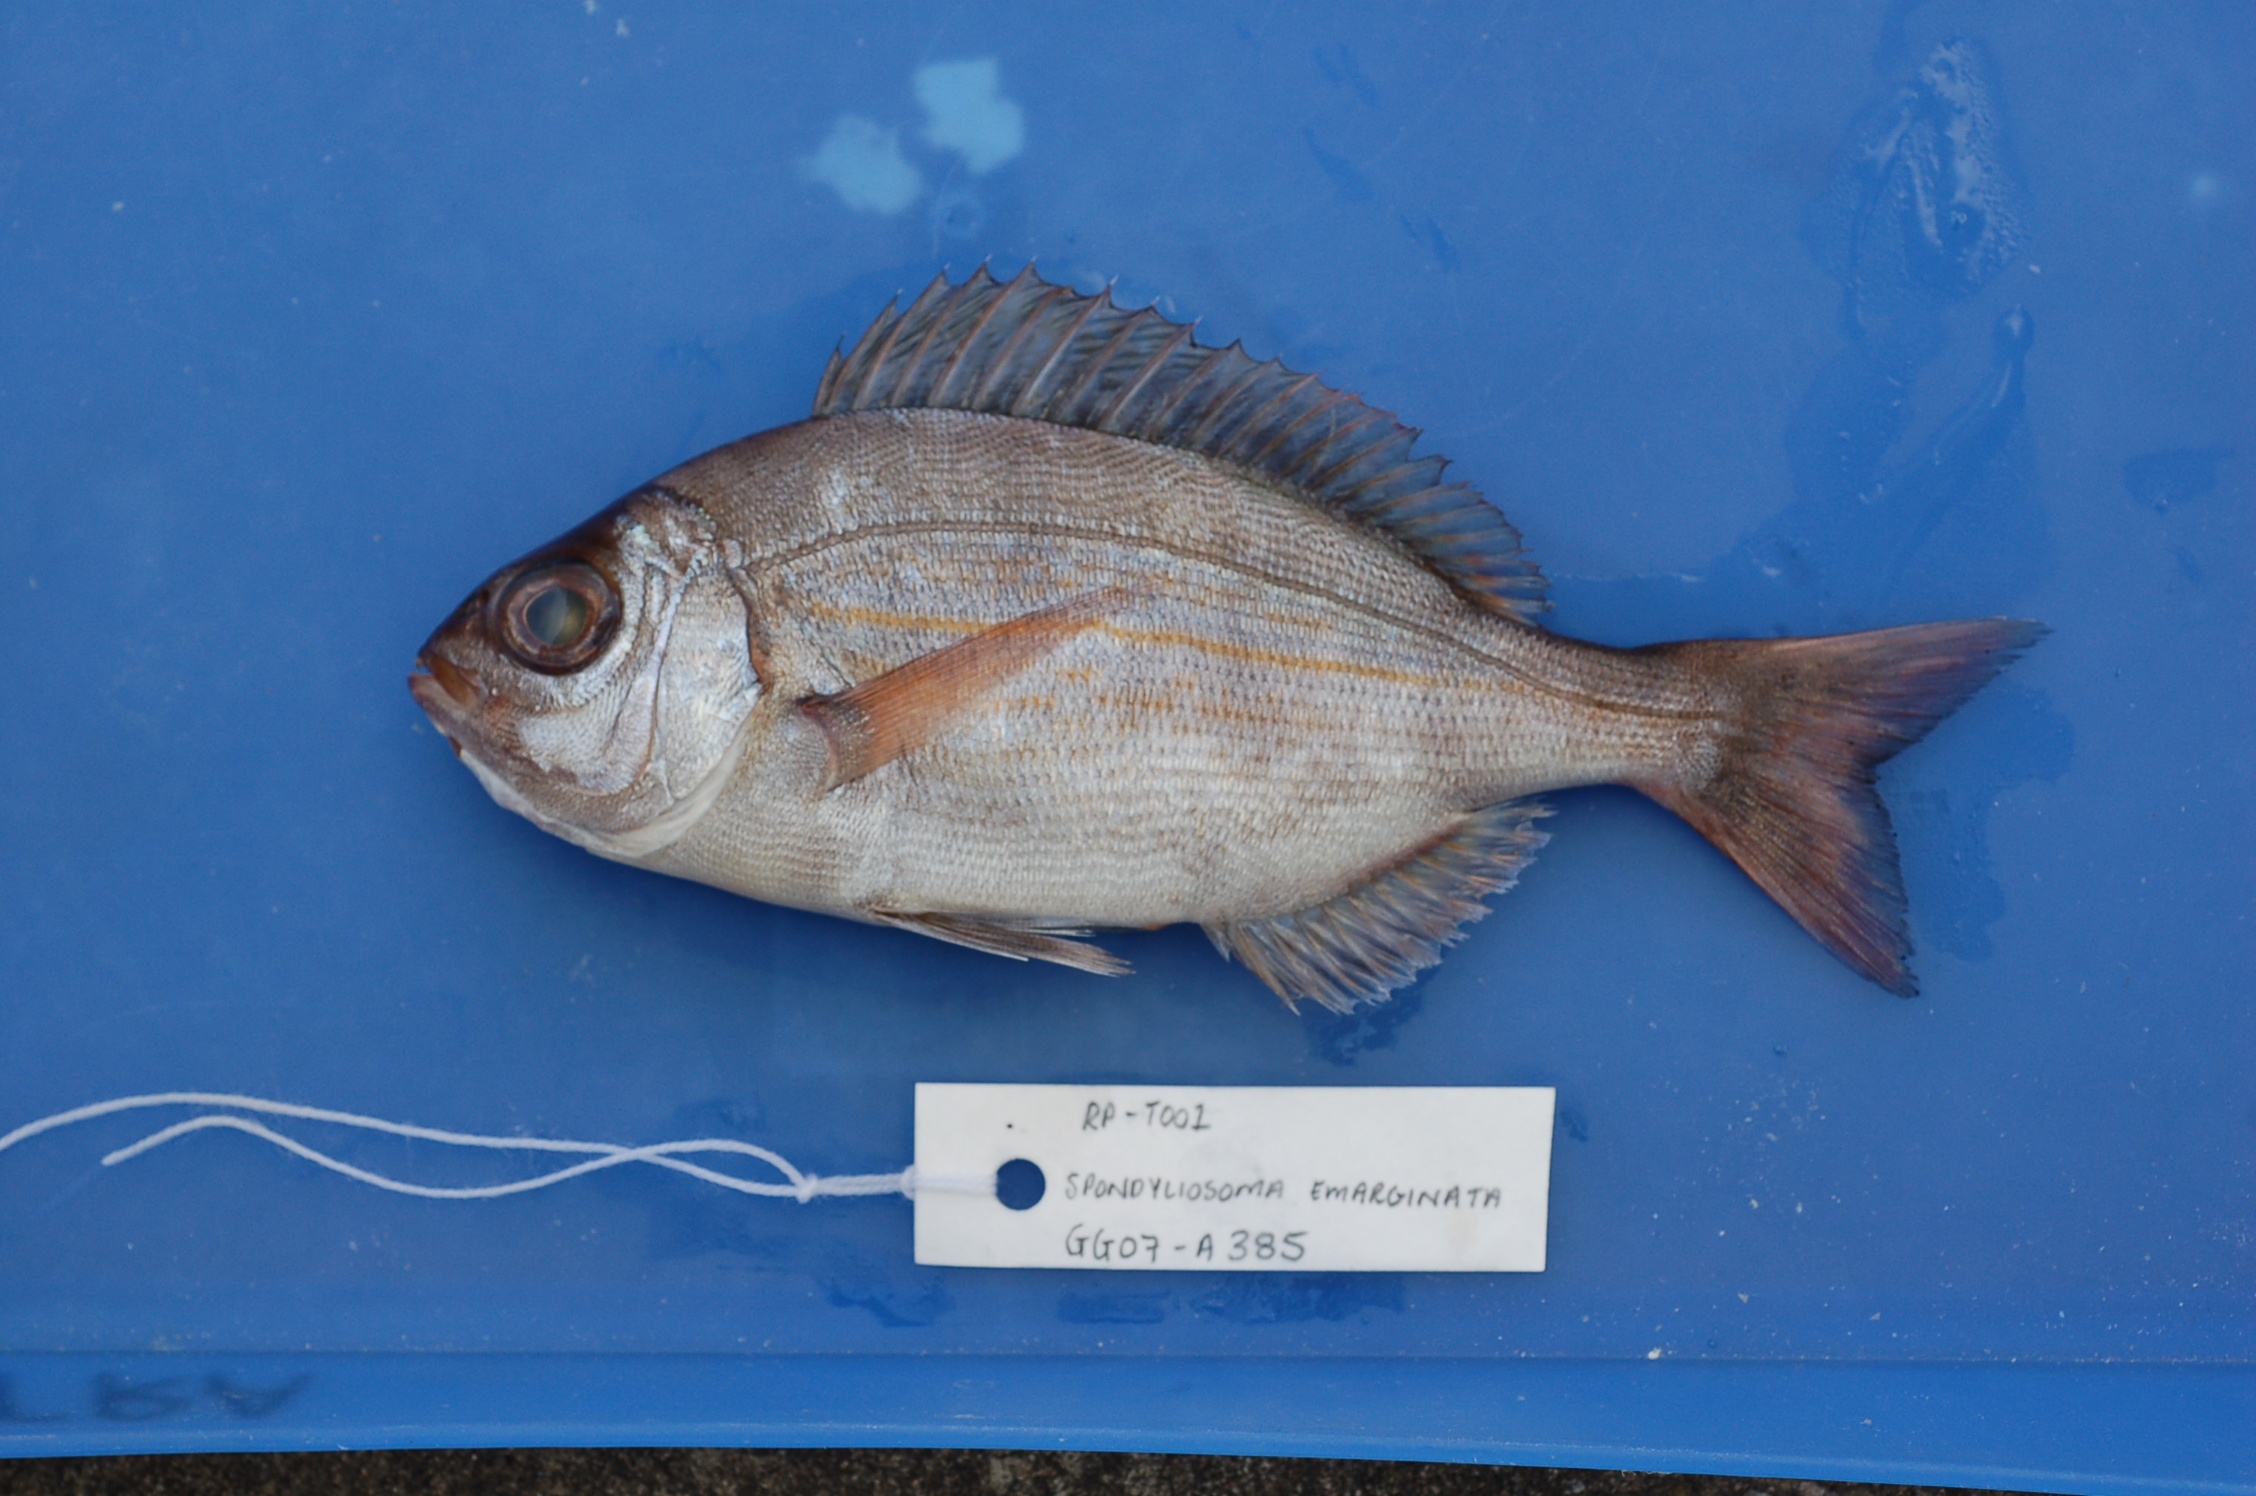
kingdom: Animalia
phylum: Chordata
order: Perciformes
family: Sparidae
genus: Spondyliosoma
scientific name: Spondyliosoma emarginatum
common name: Steentje seabream
